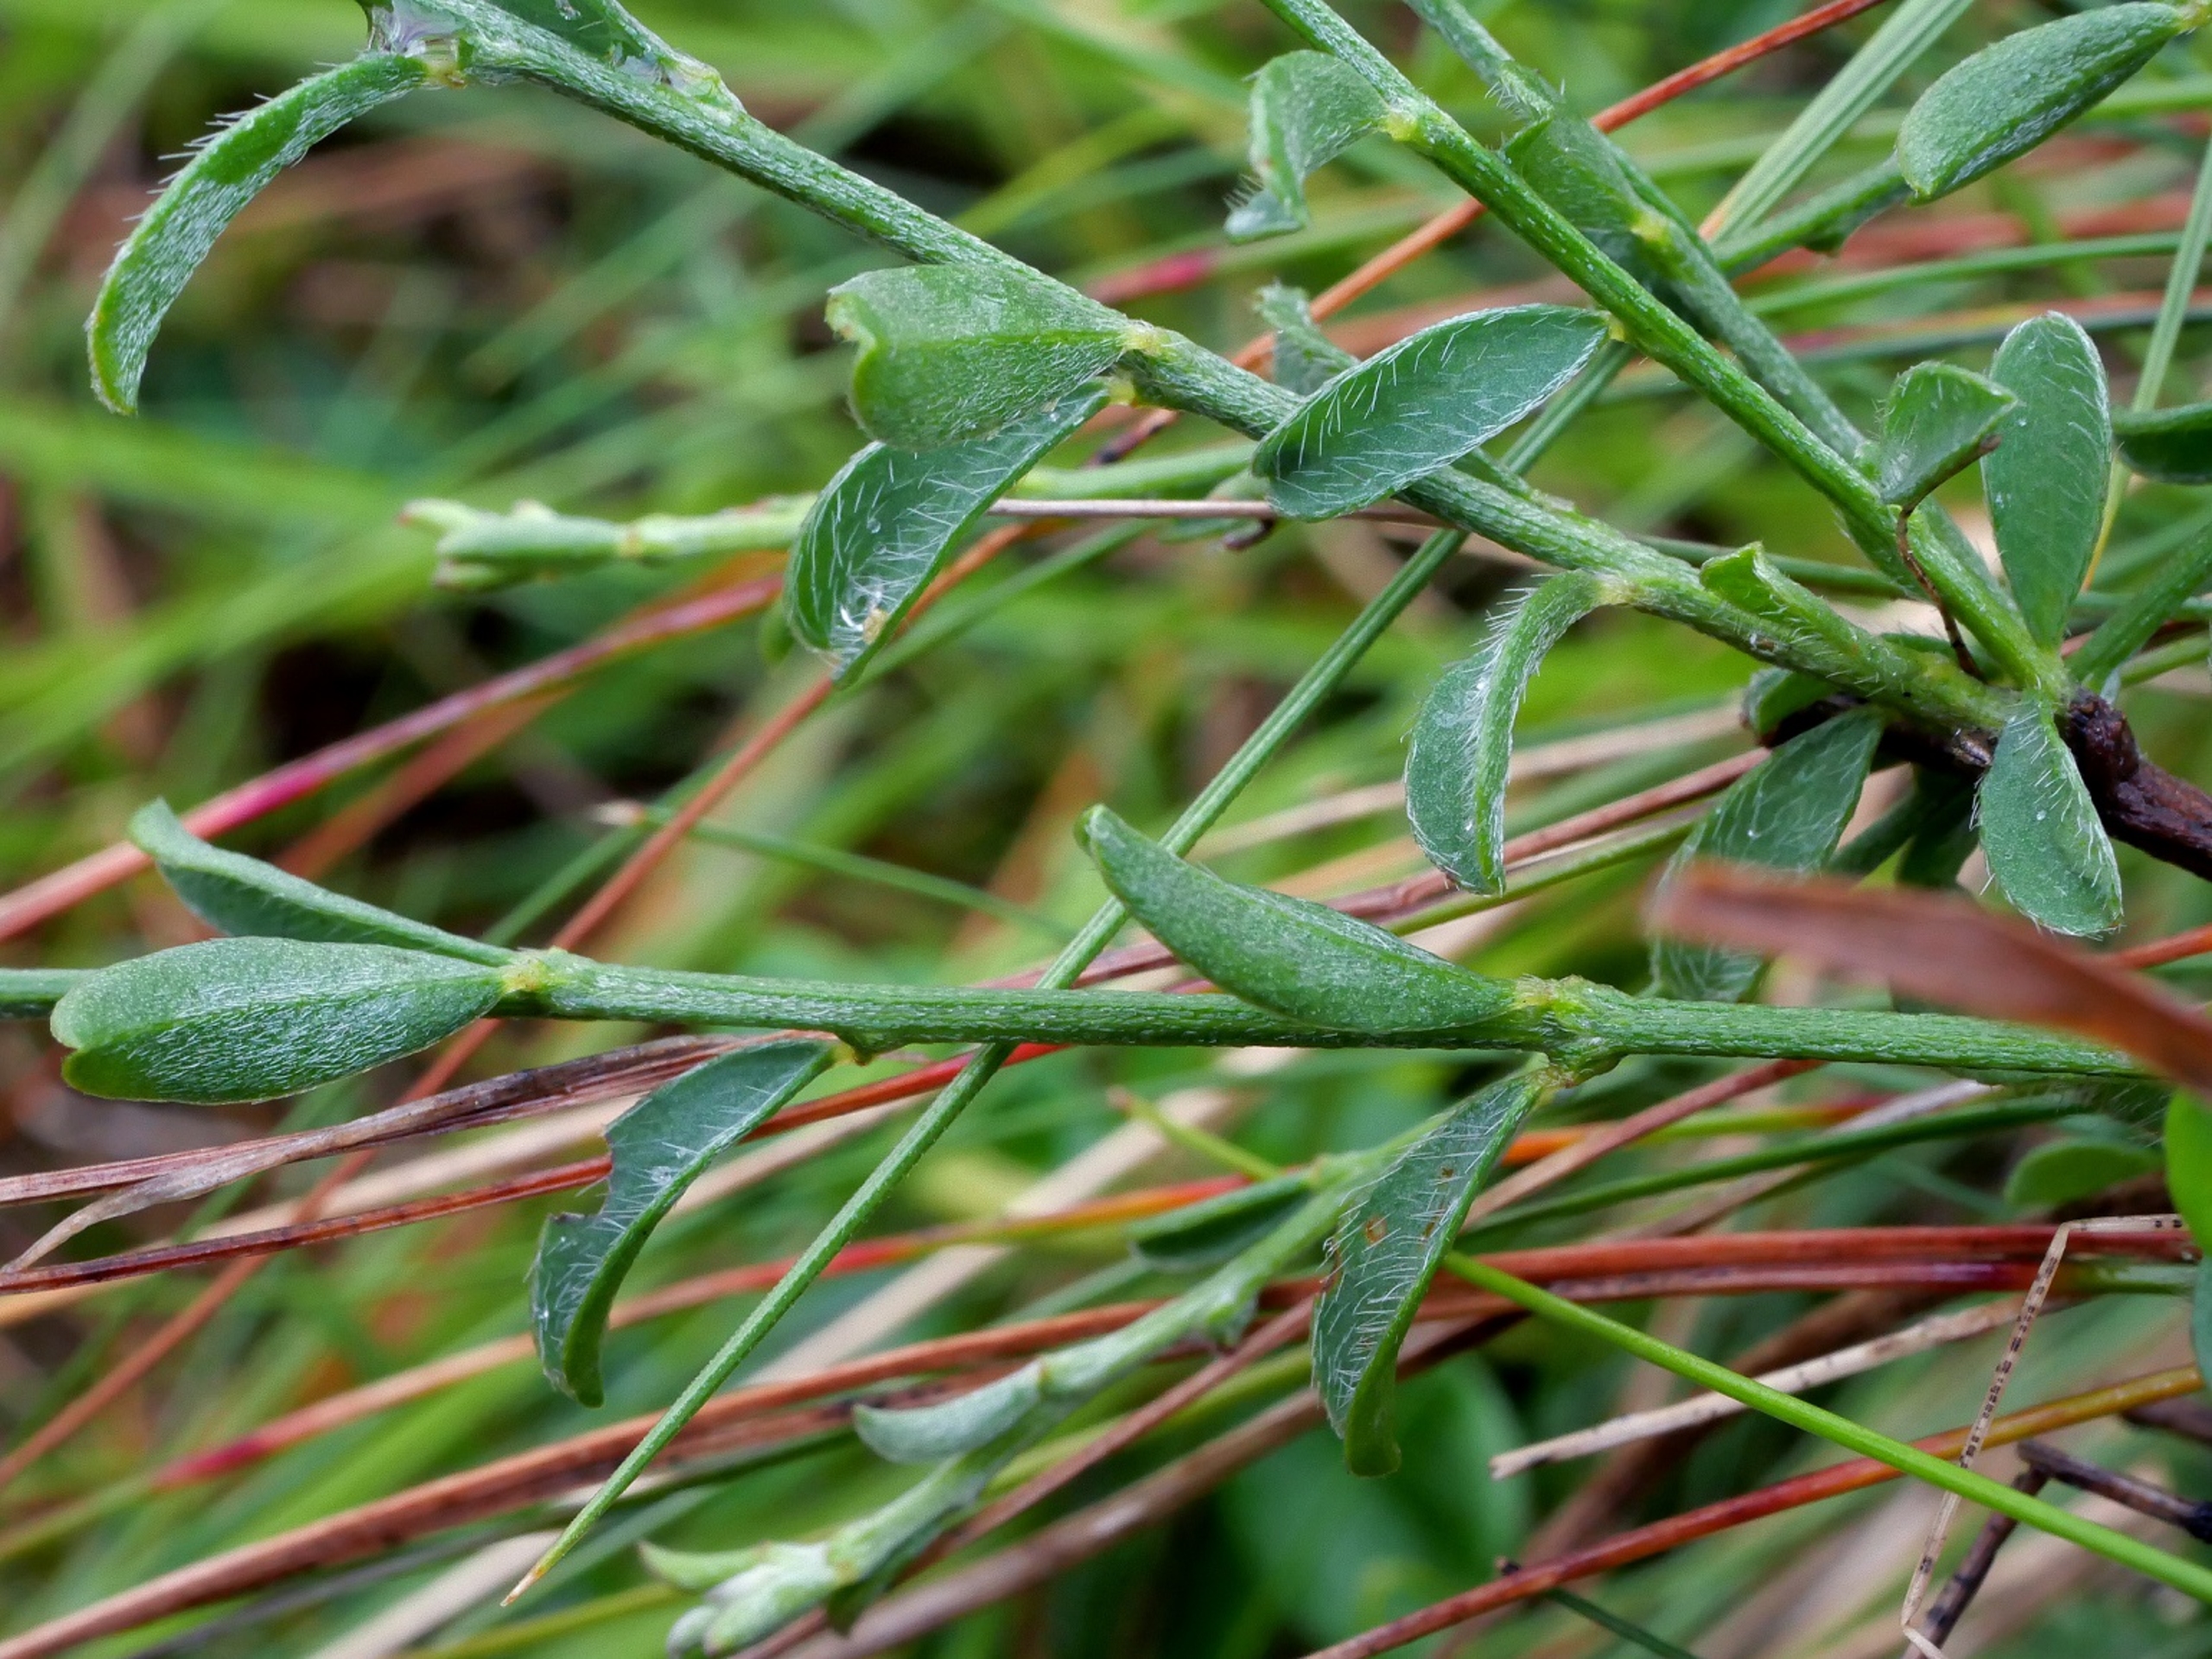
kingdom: Plantae
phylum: Tracheophyta
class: Magnoliopsida
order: Fabales
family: Fabaceae
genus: Genista
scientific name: Genista pilosa
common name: Håret visse
